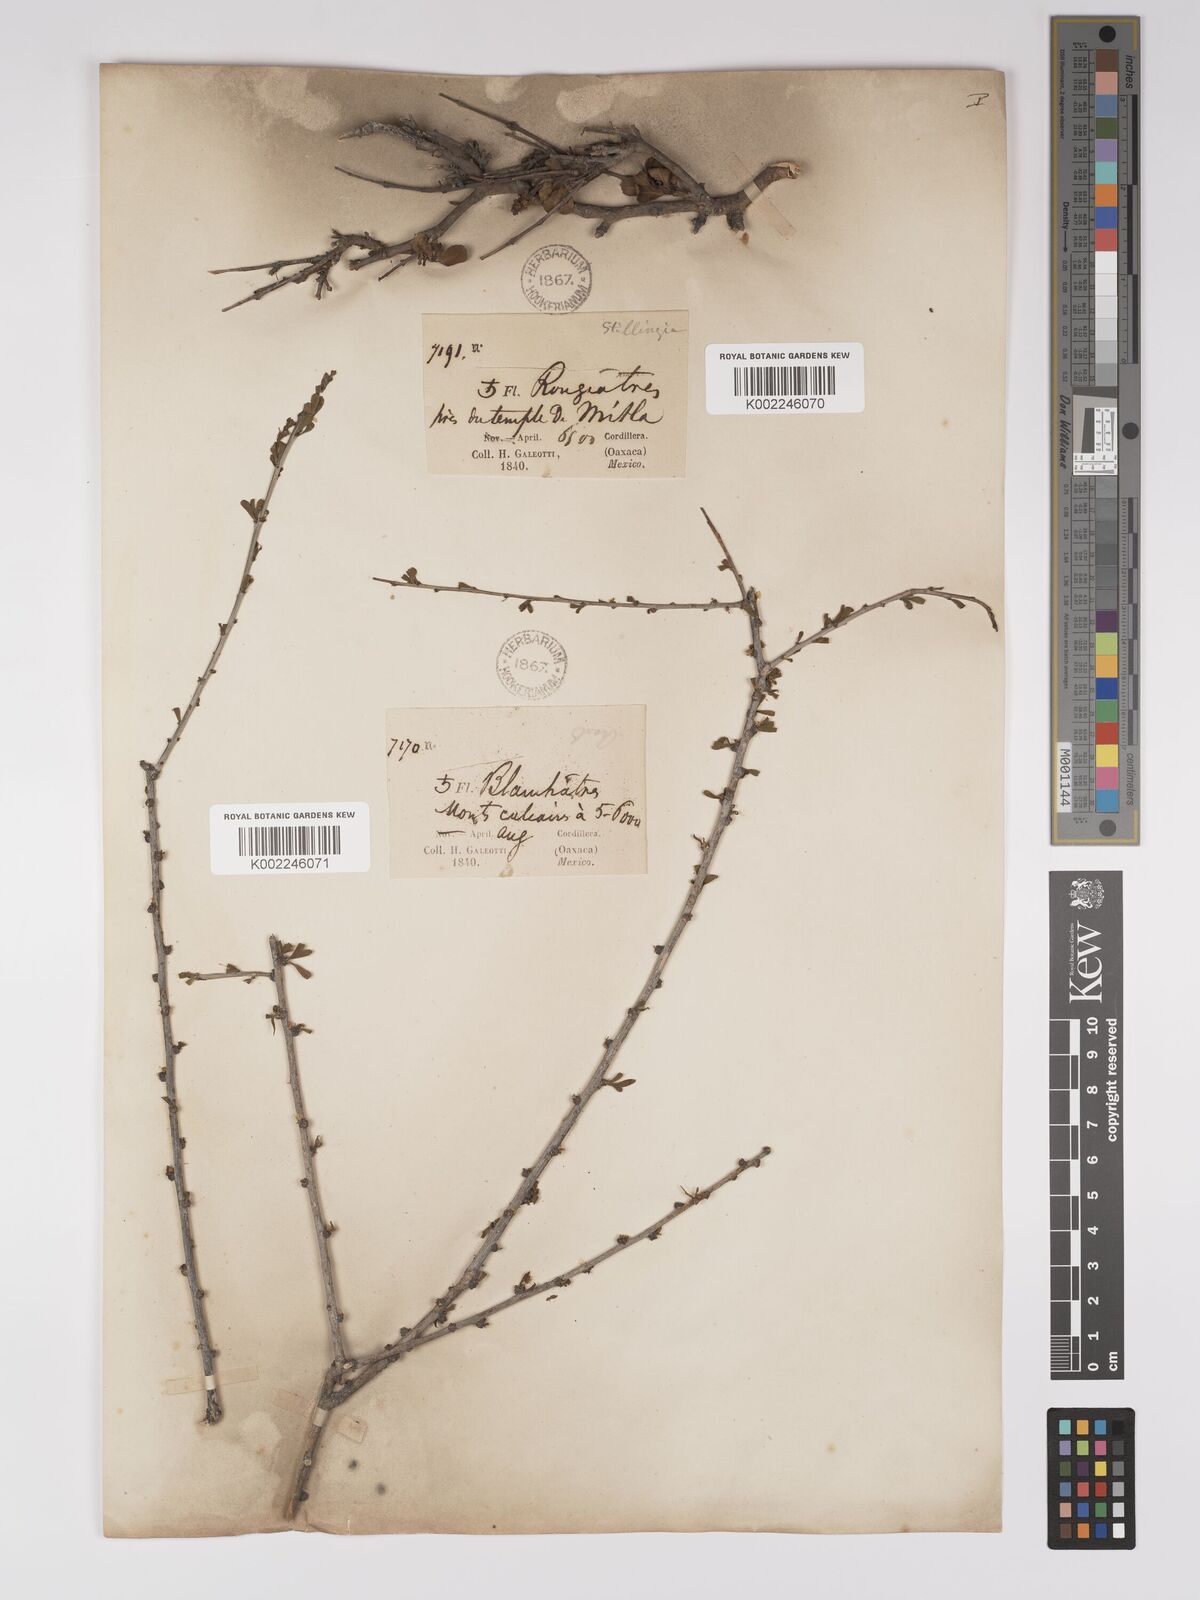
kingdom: Plantae
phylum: Tracheophyta
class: Magnoliopsida
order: Malpighiales
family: Euphorbiaceae
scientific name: Euphorbiaceae
